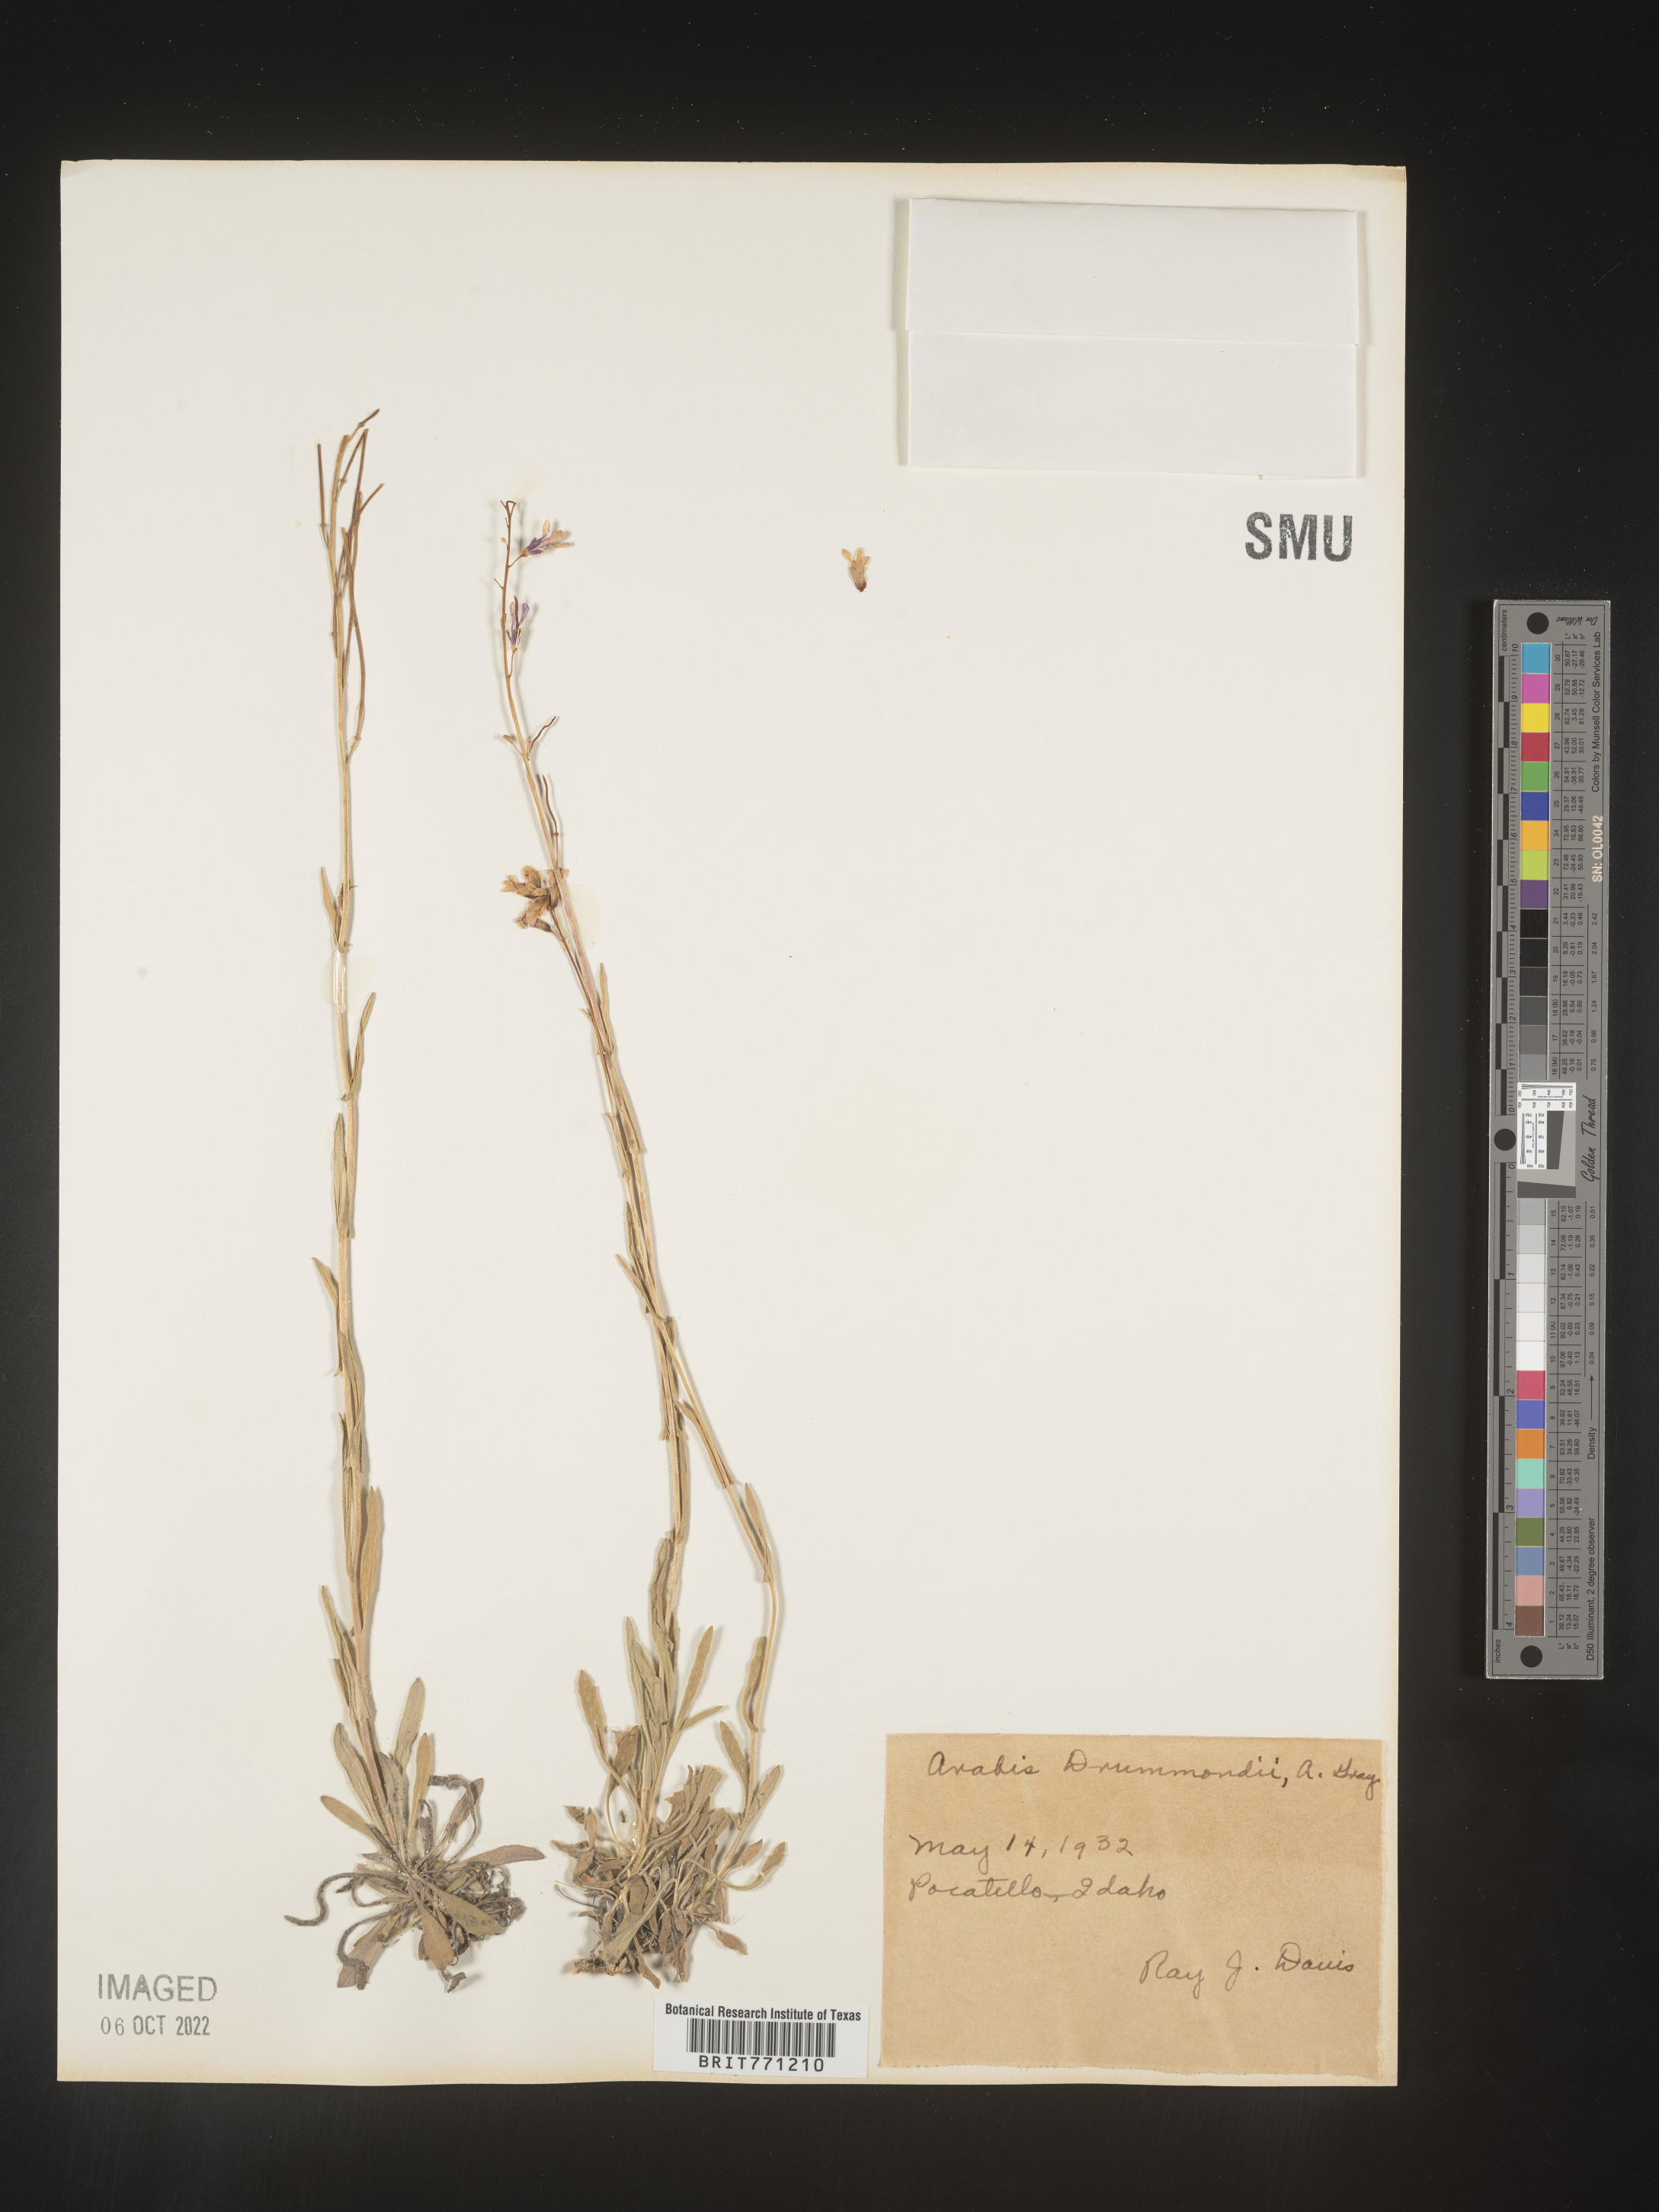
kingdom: Plantae
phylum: Tracheophyta
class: Magnoliopsida
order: Brassicales
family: Brassicaceae
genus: Boechera
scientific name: Boechera stricta
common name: Canadian rockcress
